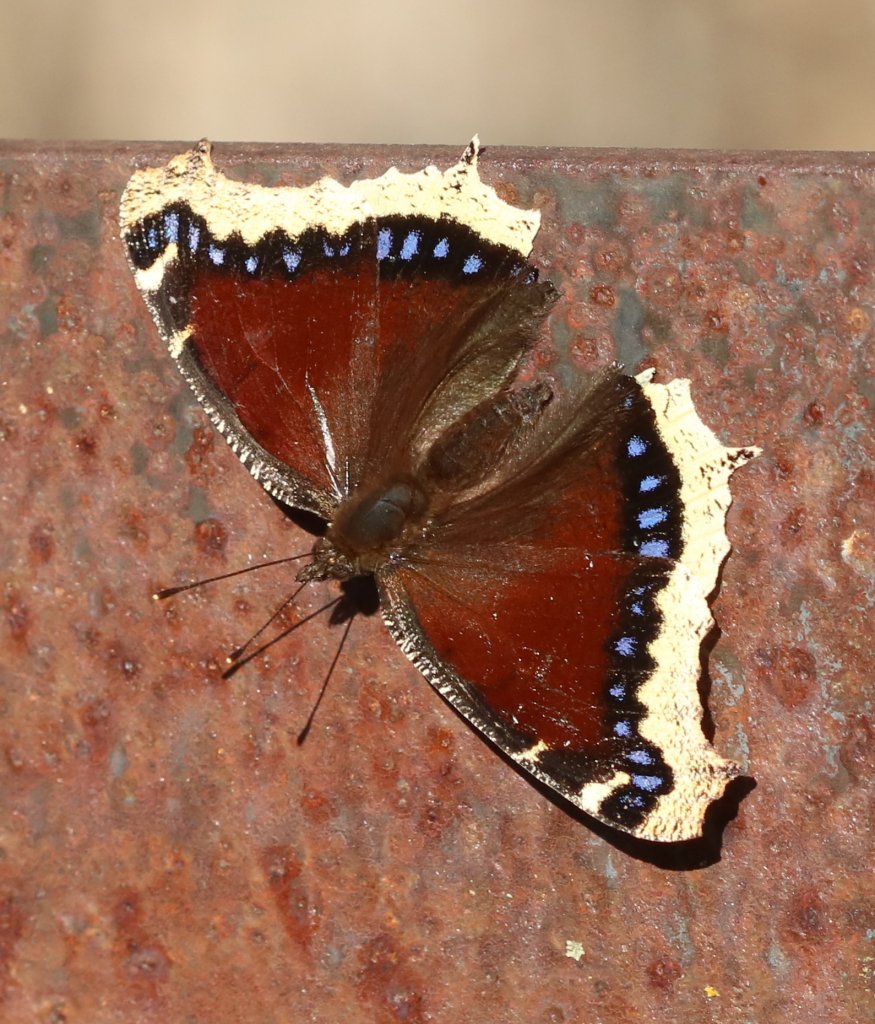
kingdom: Animalia
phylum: Arthropoda
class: Insecta
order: Lepidoptera
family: Nymphalidae
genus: Nymphalis
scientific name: Nymphalis antiopa
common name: Mourning Cloak
